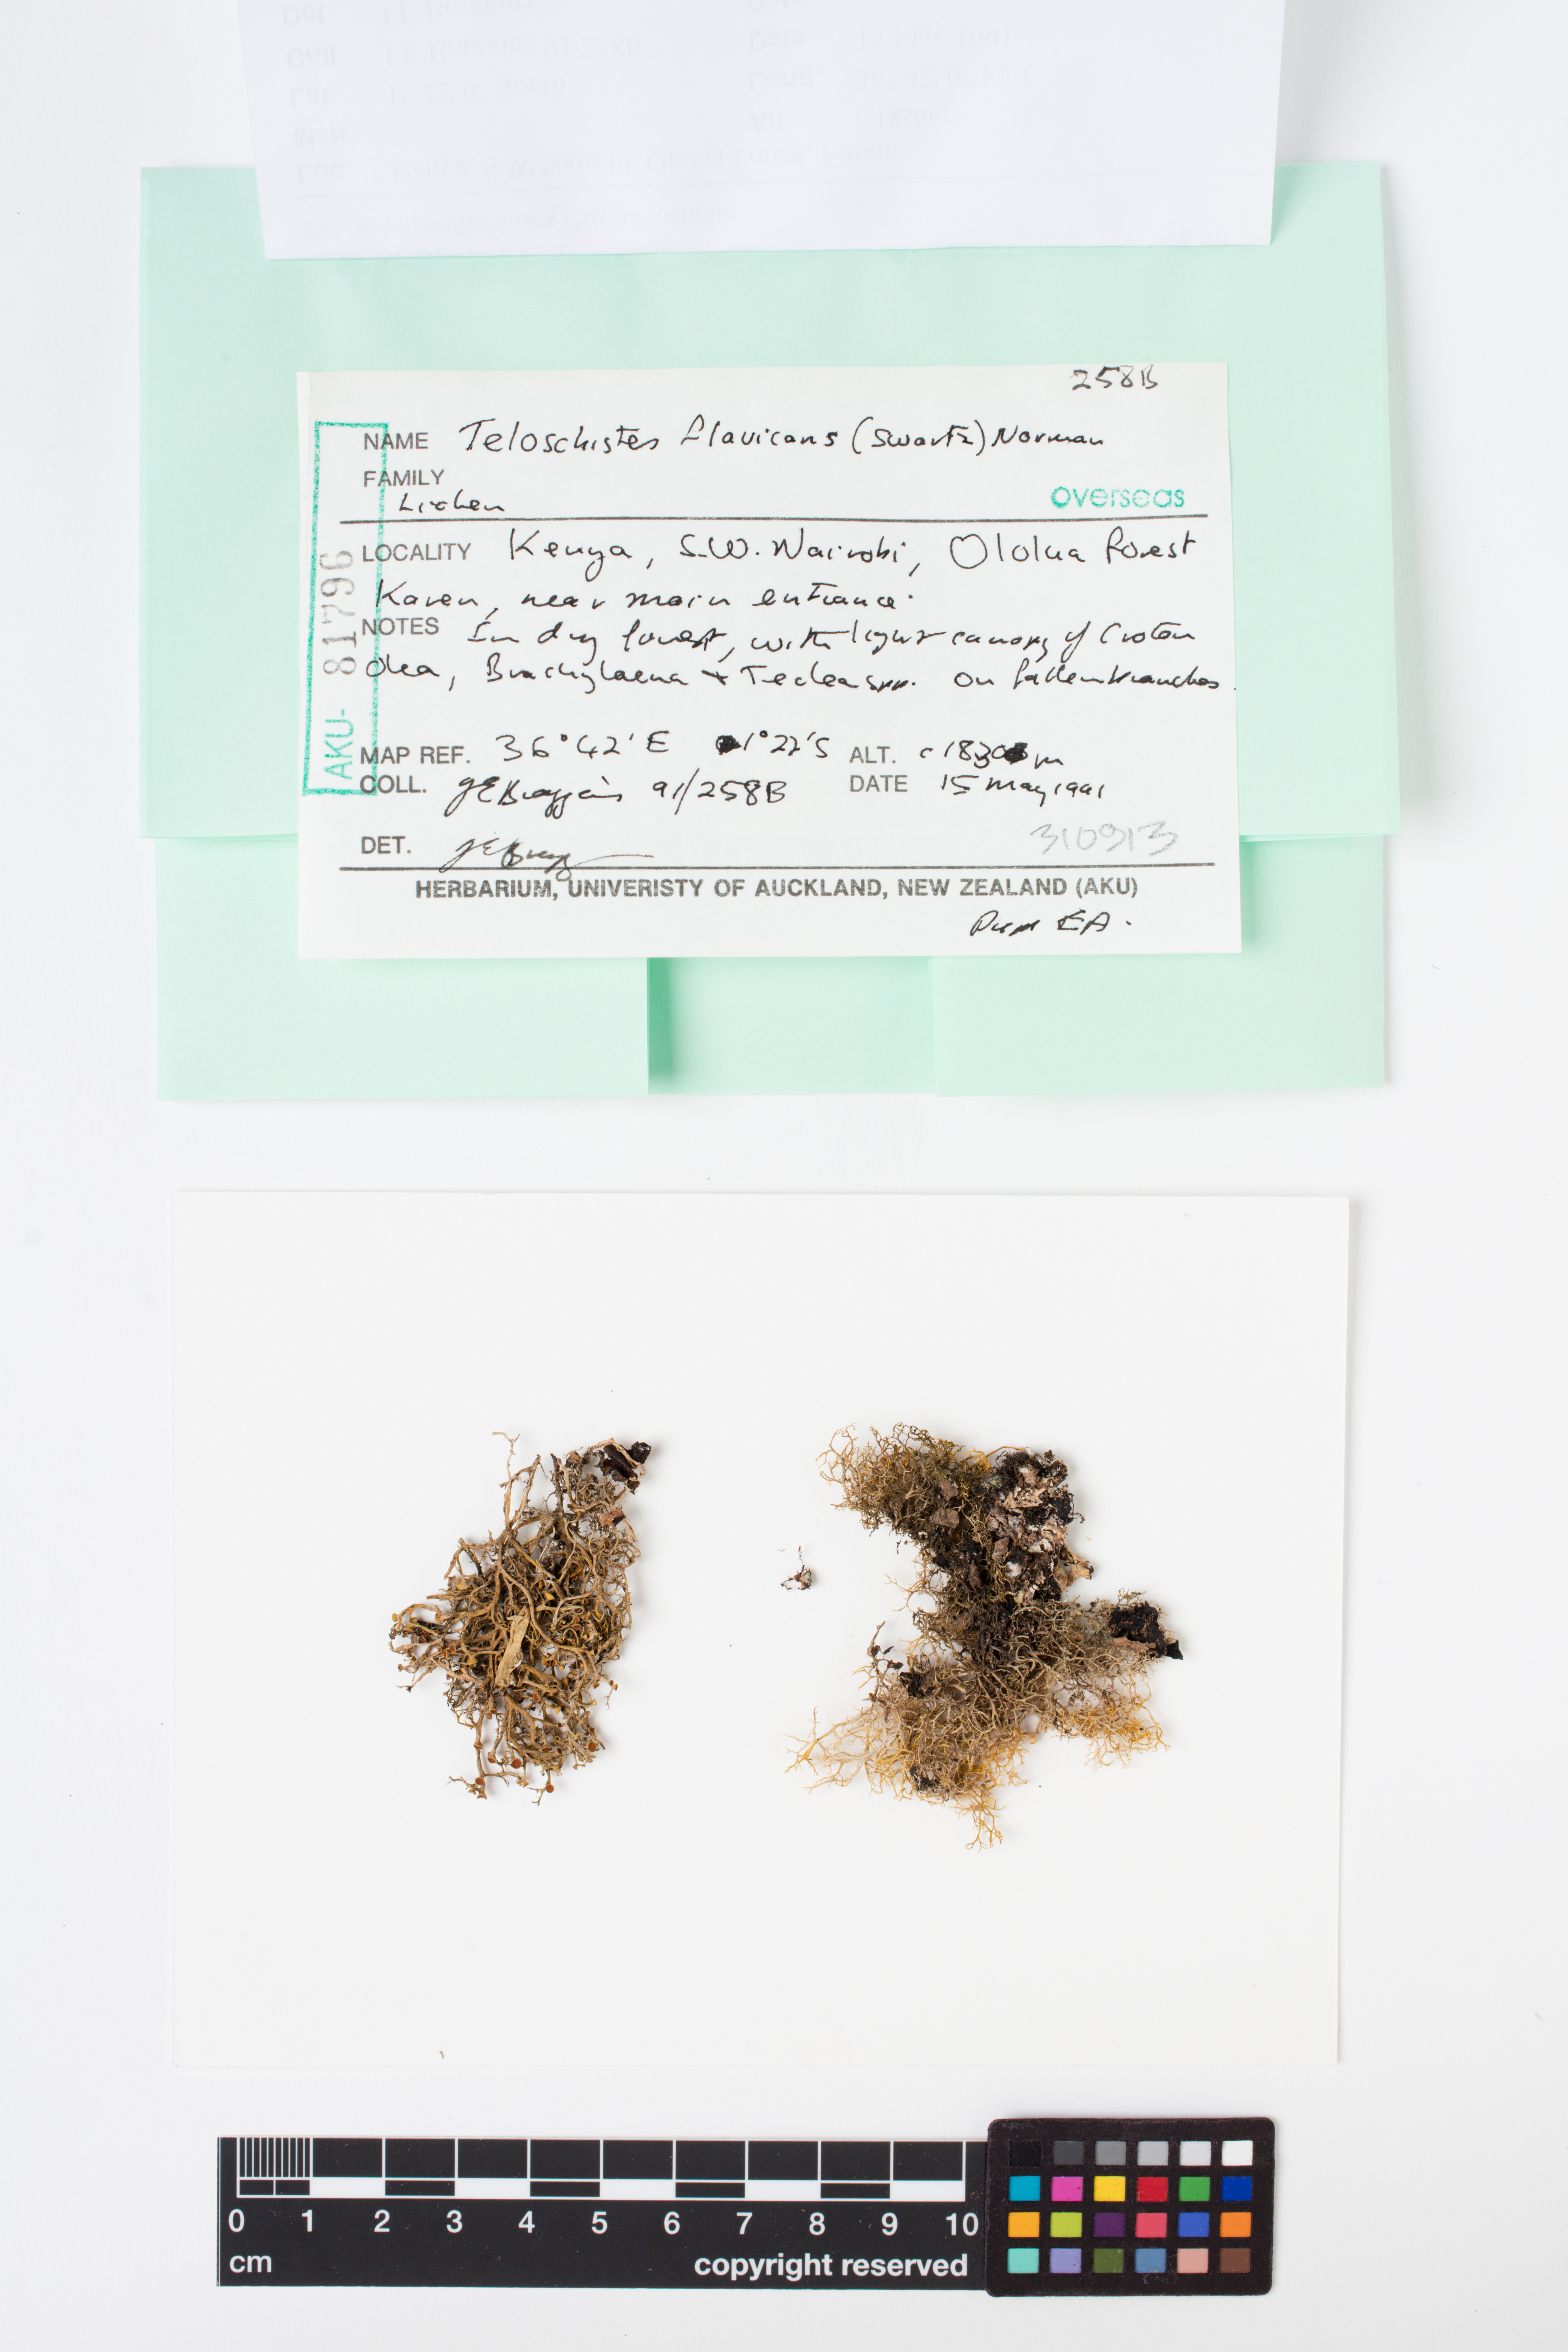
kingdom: Fungi
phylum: Ascomycota
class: Lecanoromycetes
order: Teloschistales
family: Teloschistaceae
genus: Teloschistes
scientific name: Teloschistes flavicans
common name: Golden hair-lichen
